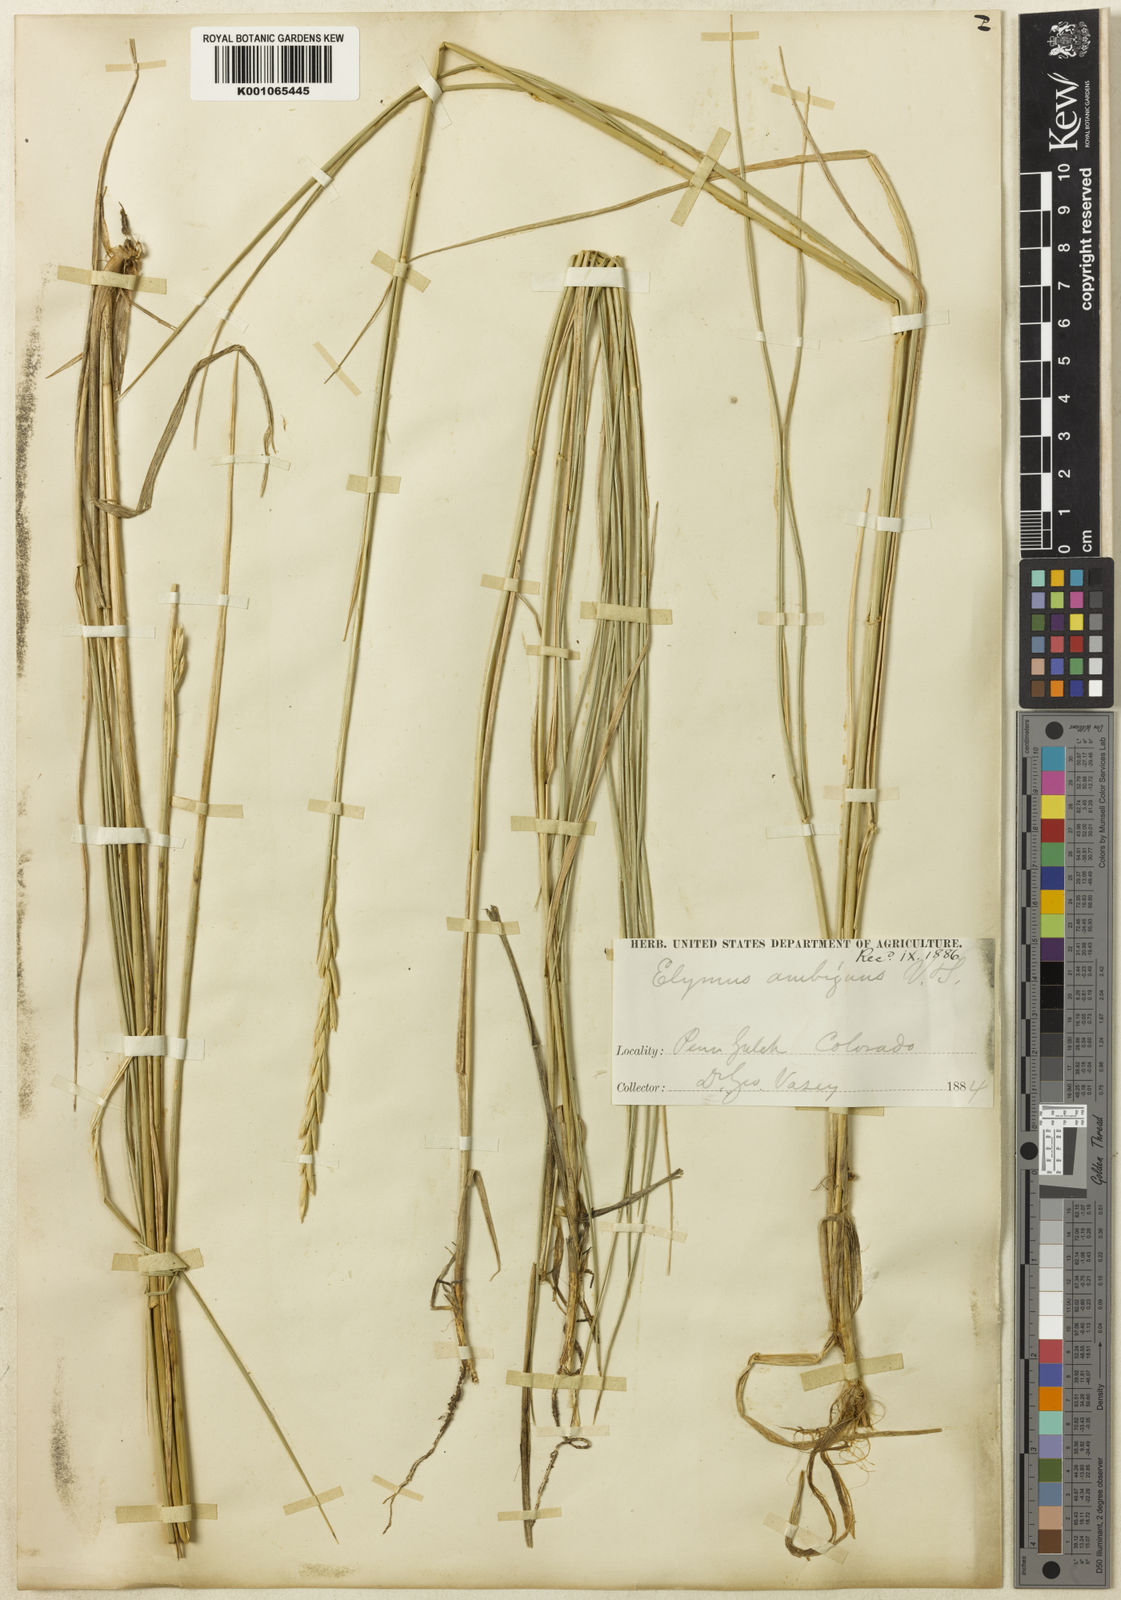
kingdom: Plantae
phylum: Tracheophyta
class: Liliopsida
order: Poales
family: Poaceae
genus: Leymus
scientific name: Leymus ambiguus
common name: Colorado wild rye
